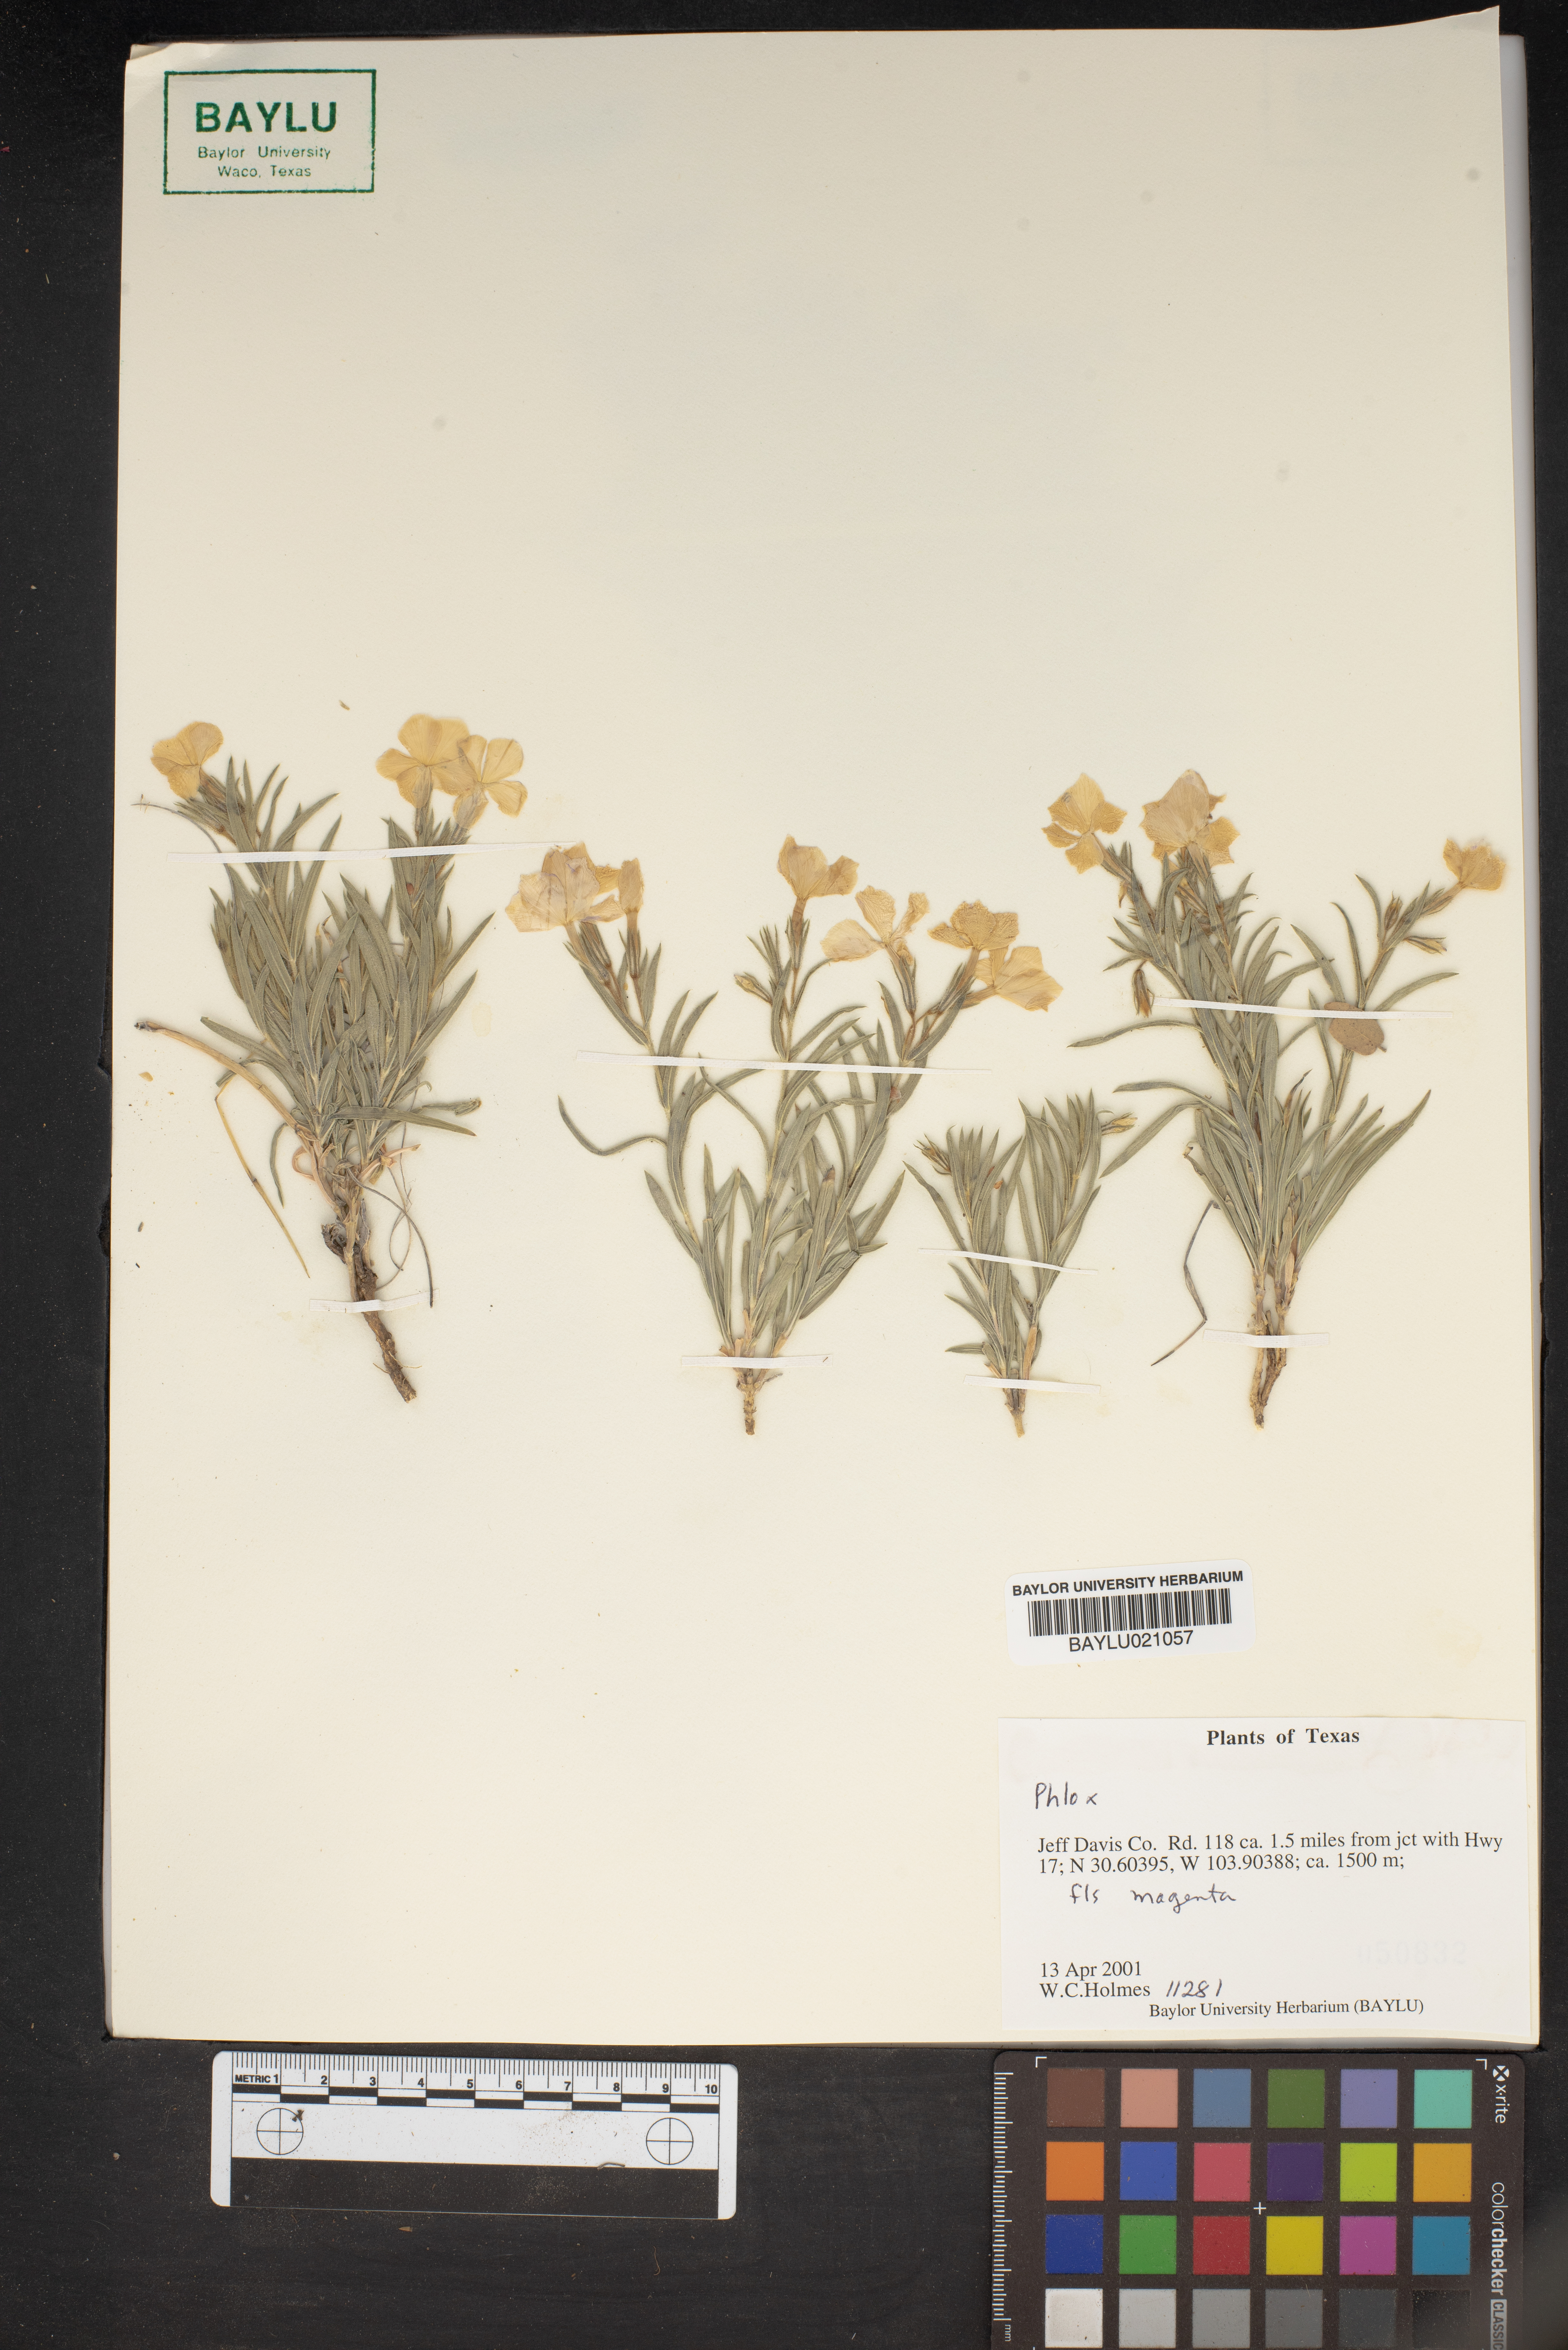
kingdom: Plantae
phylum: Tracheophyta
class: Magnoliopsida
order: Ericales
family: Polemoniaceae
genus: Phlox
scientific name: Phlox
